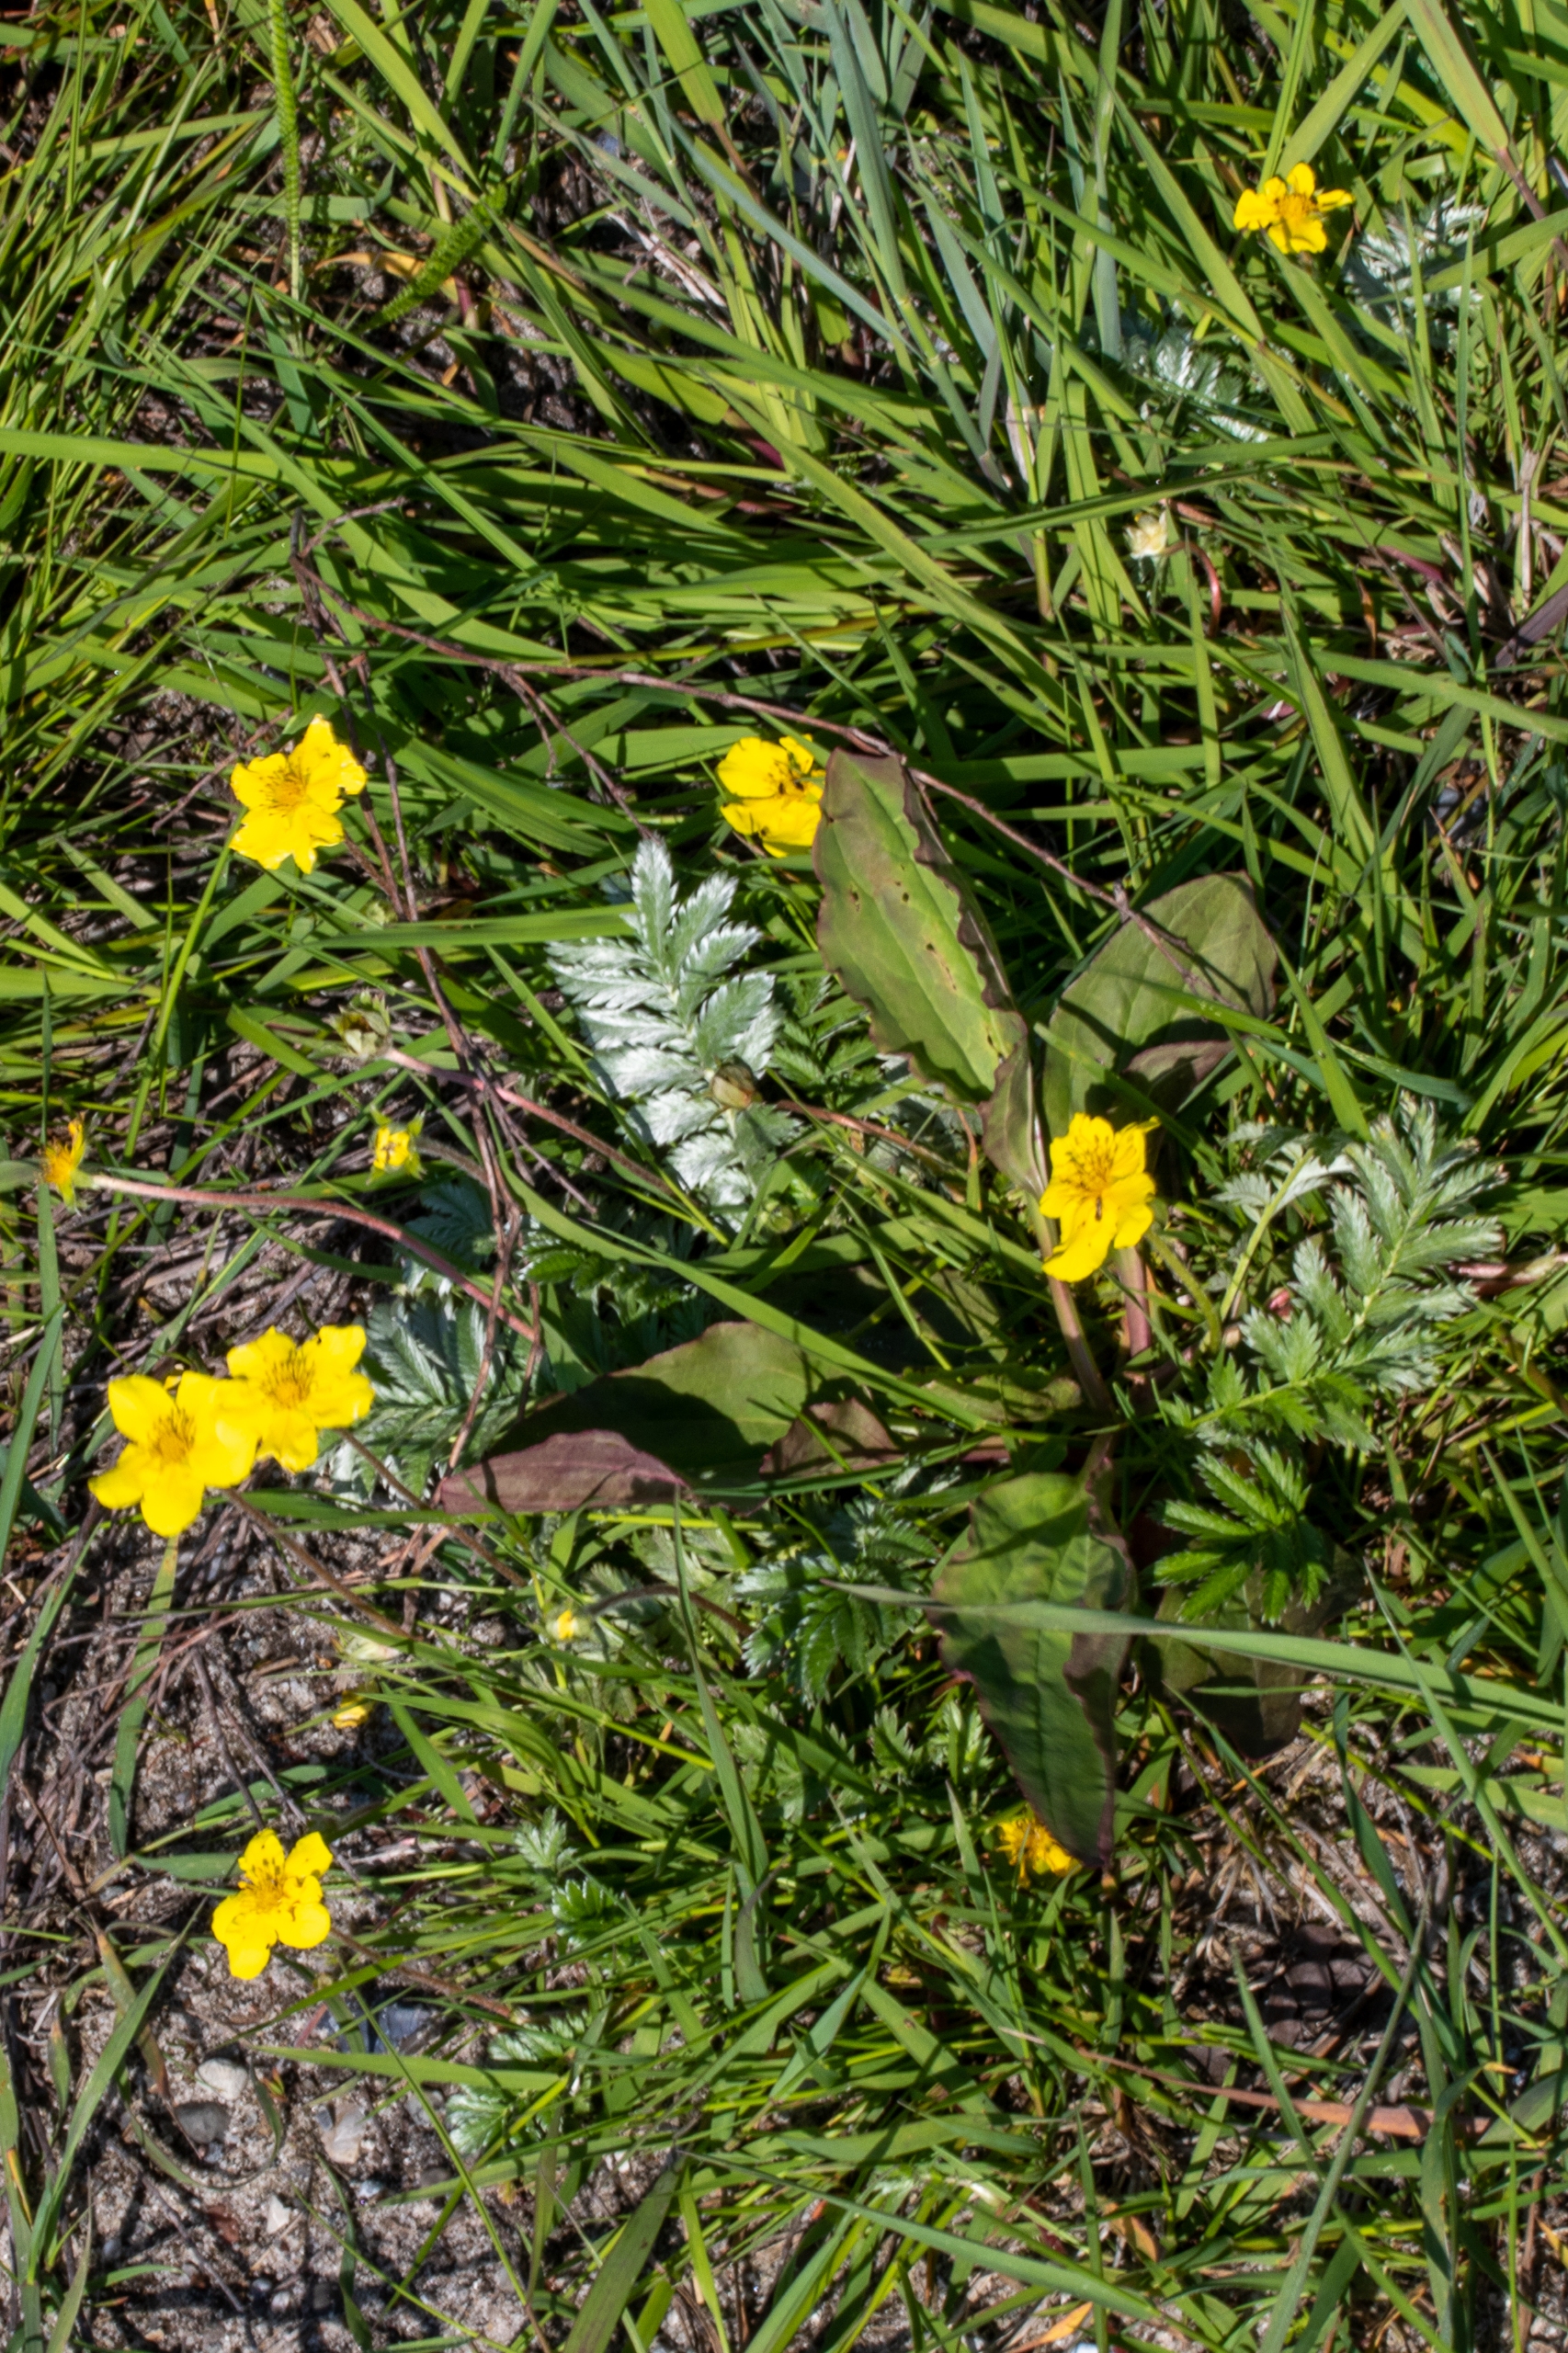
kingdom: Plantae
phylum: Tracheophyta
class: Magnoliopsida
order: Rosales
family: Rosaceae
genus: Argentina
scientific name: Argentina anserina
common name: Gåsepotentil
